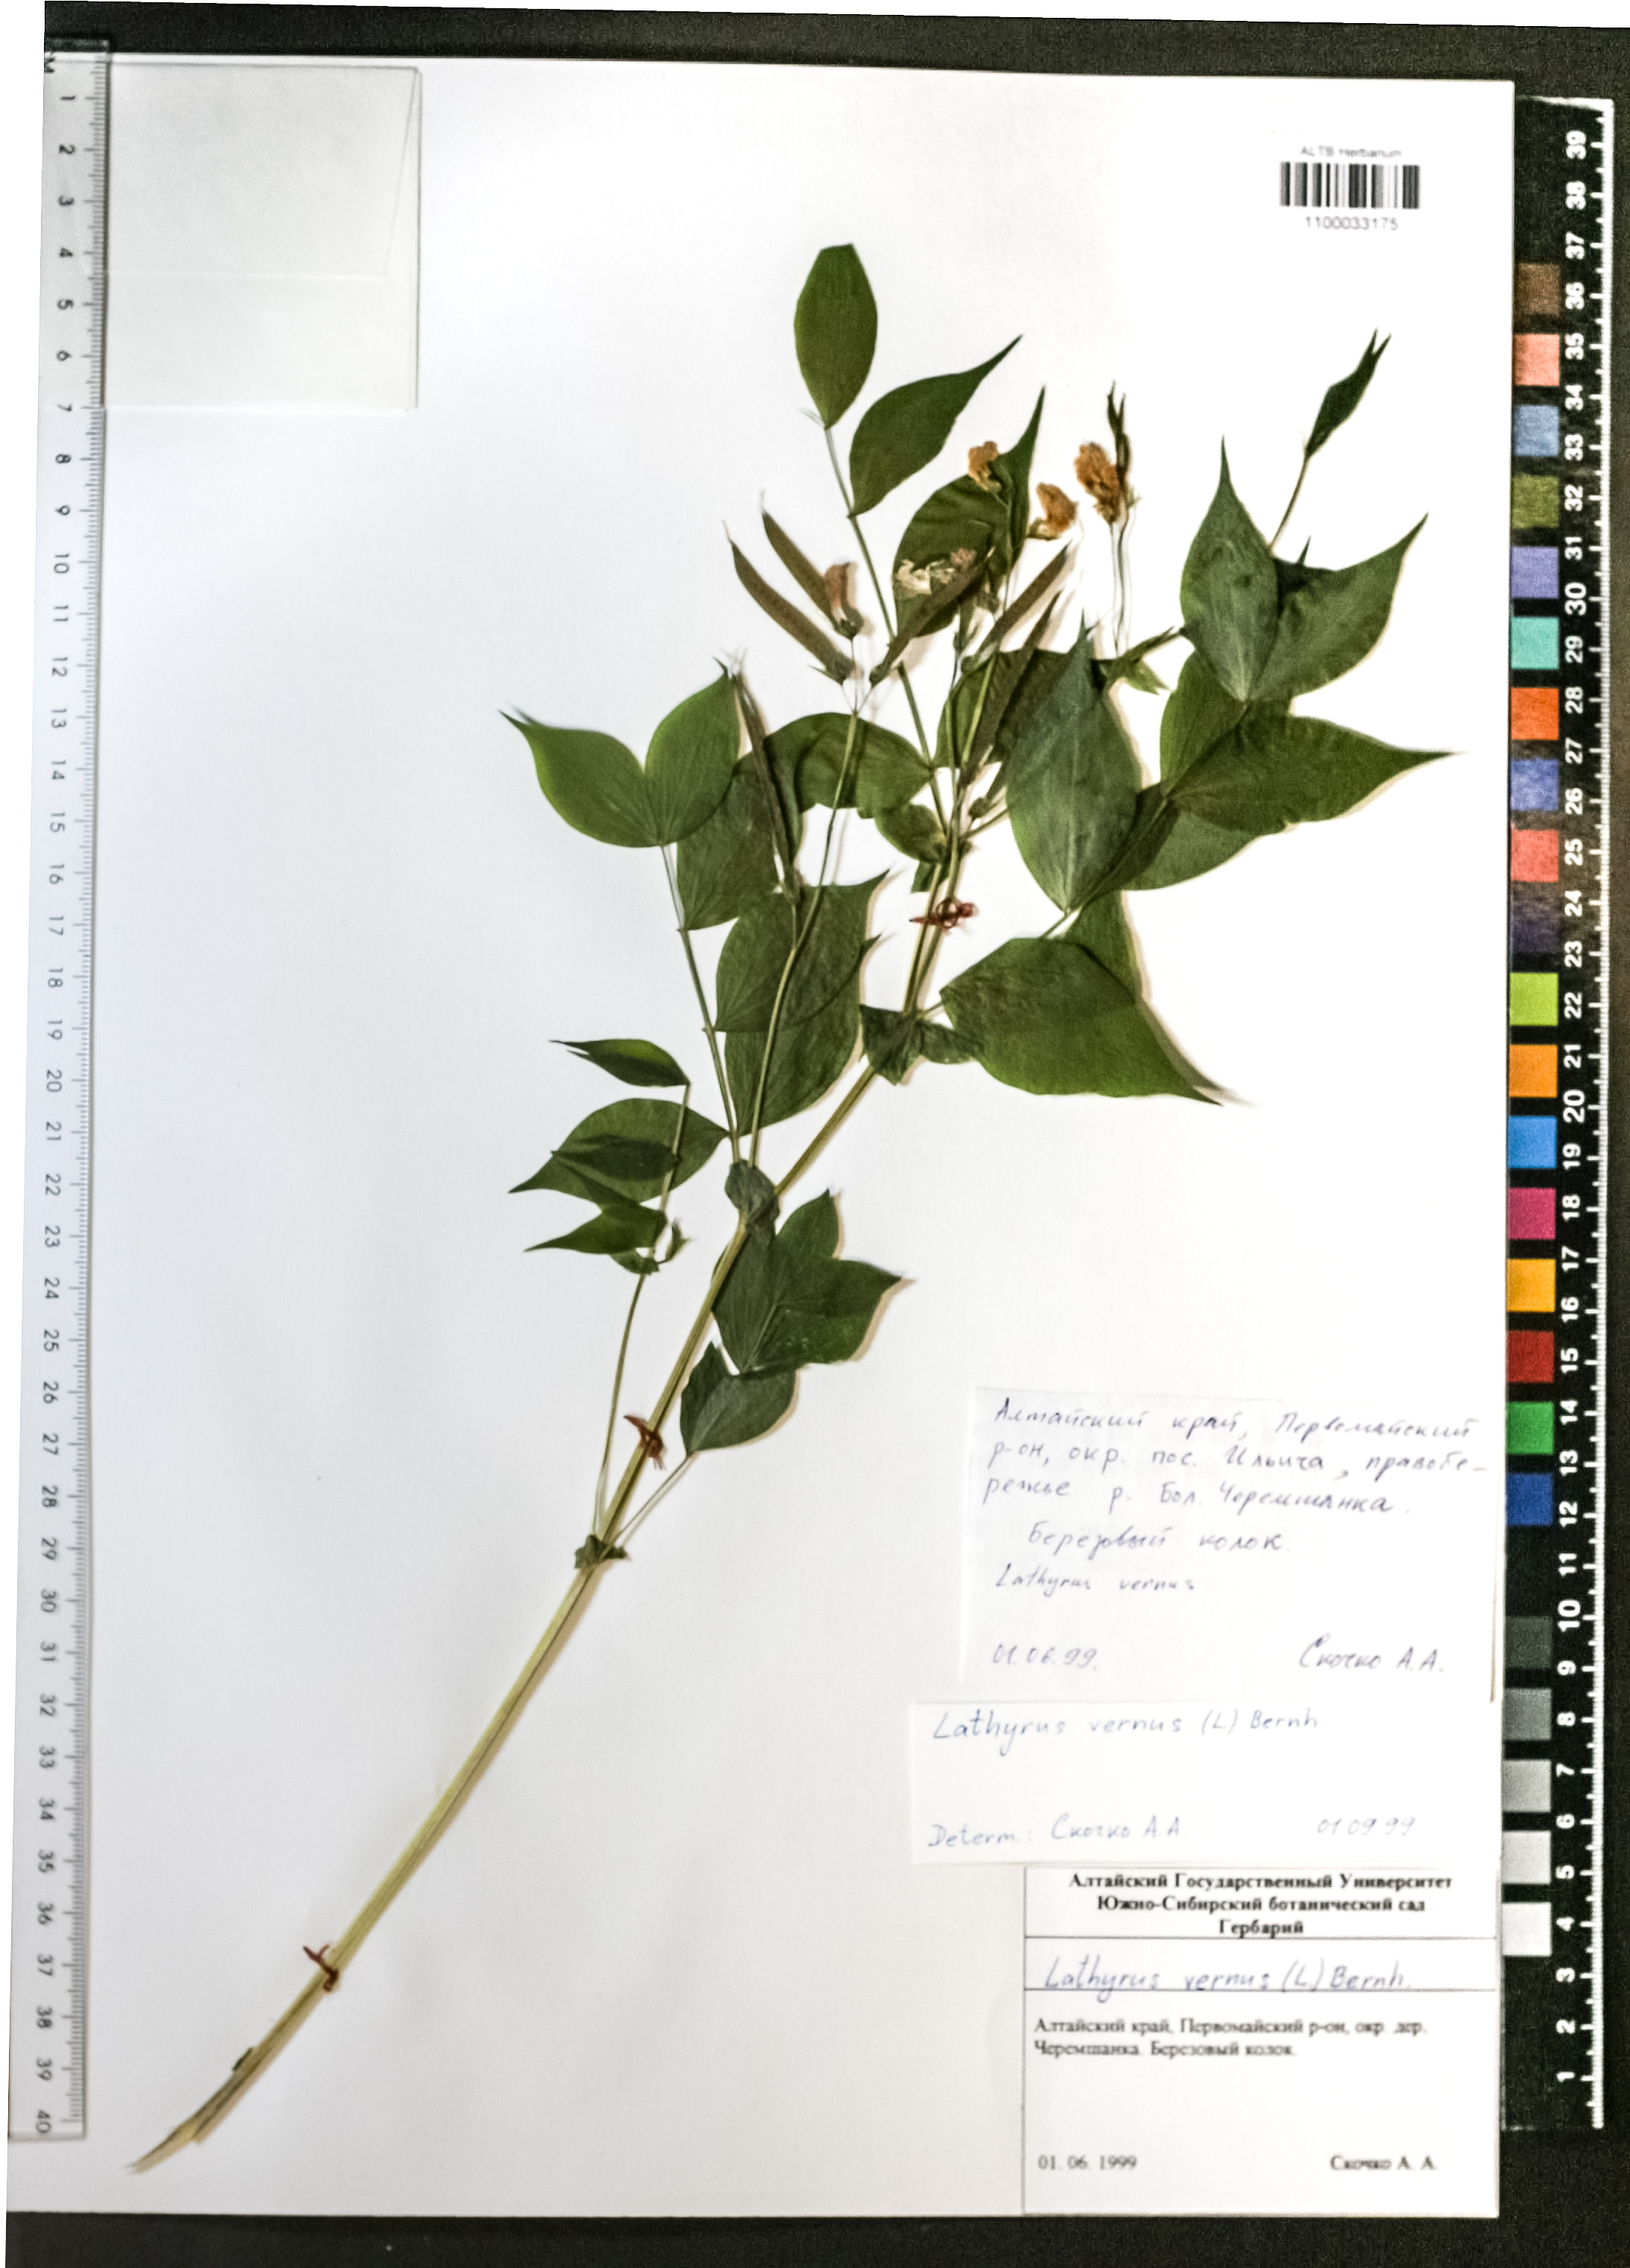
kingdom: Plantae
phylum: Tracheophyta
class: Magnoliopsida
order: Fabales
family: Fabaceae
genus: Lathyrus
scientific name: Lathyrus vernus
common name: Spring pea
